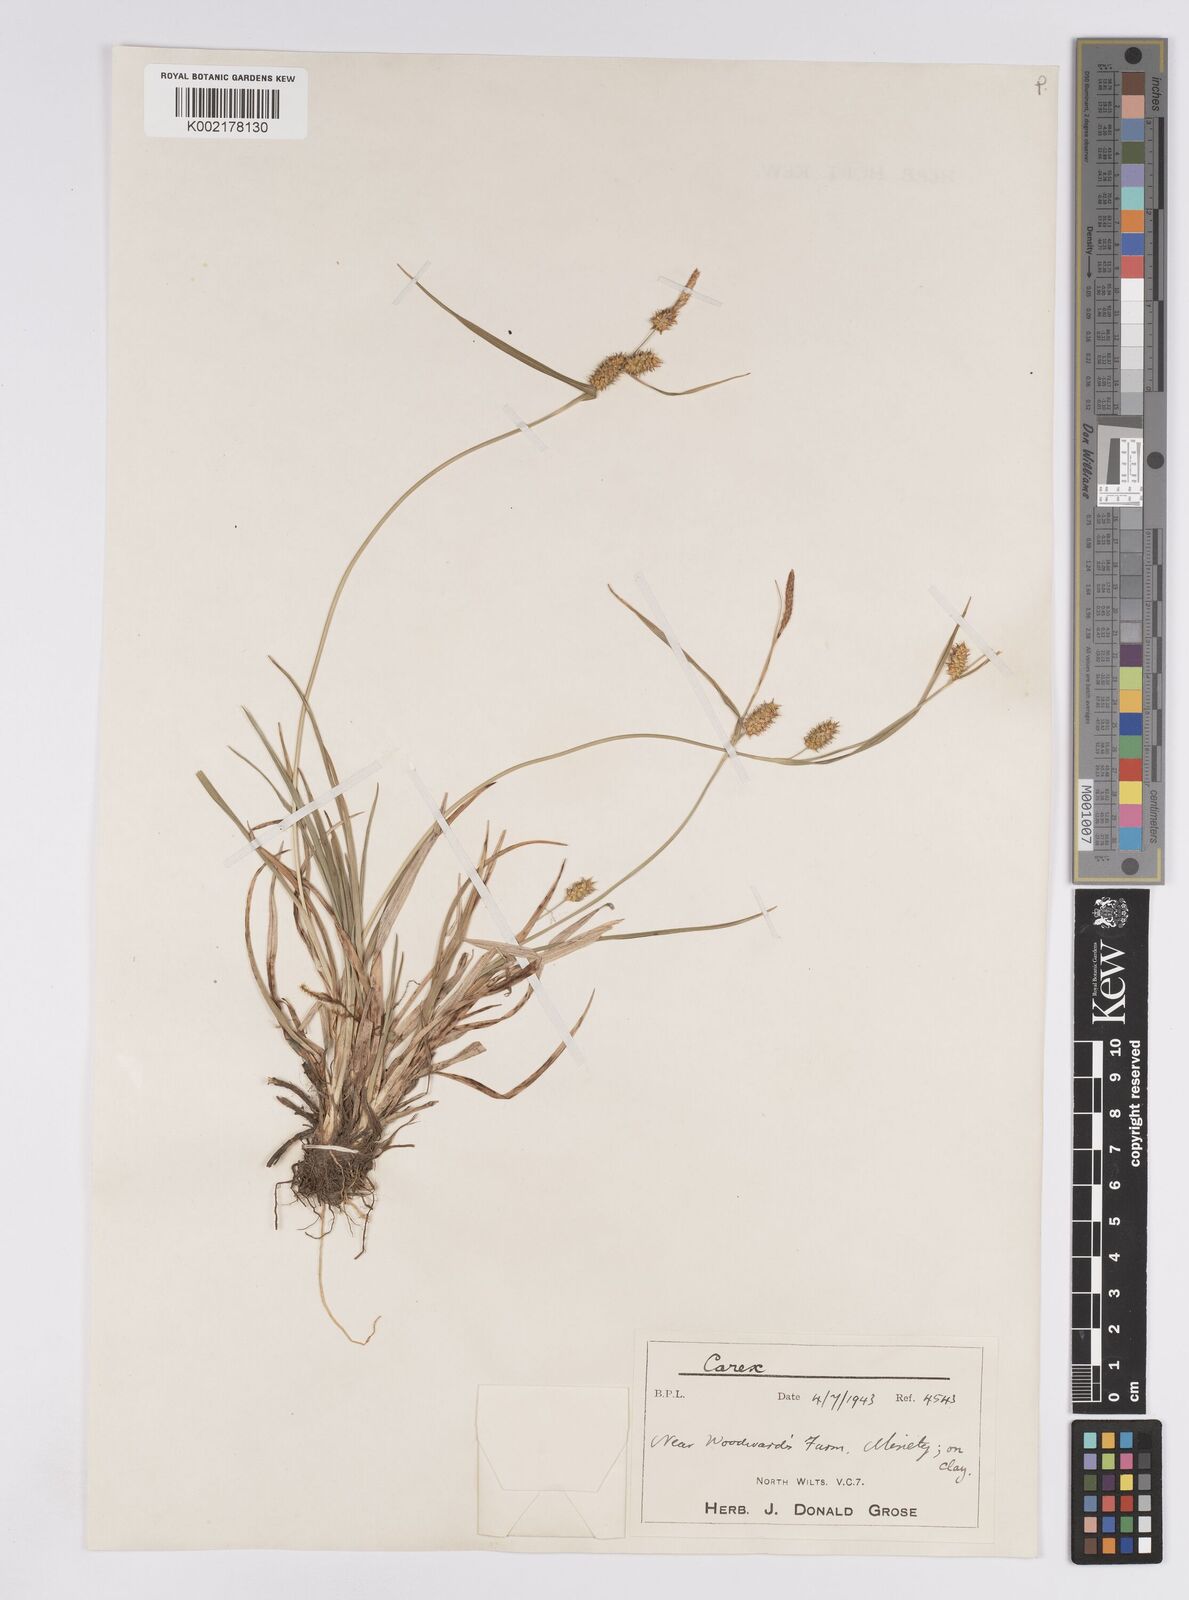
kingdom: Plantae
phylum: Tracheophyta
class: Liliopsida
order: Poales
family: Cyperaceae
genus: Carex
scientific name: Carex demissa
